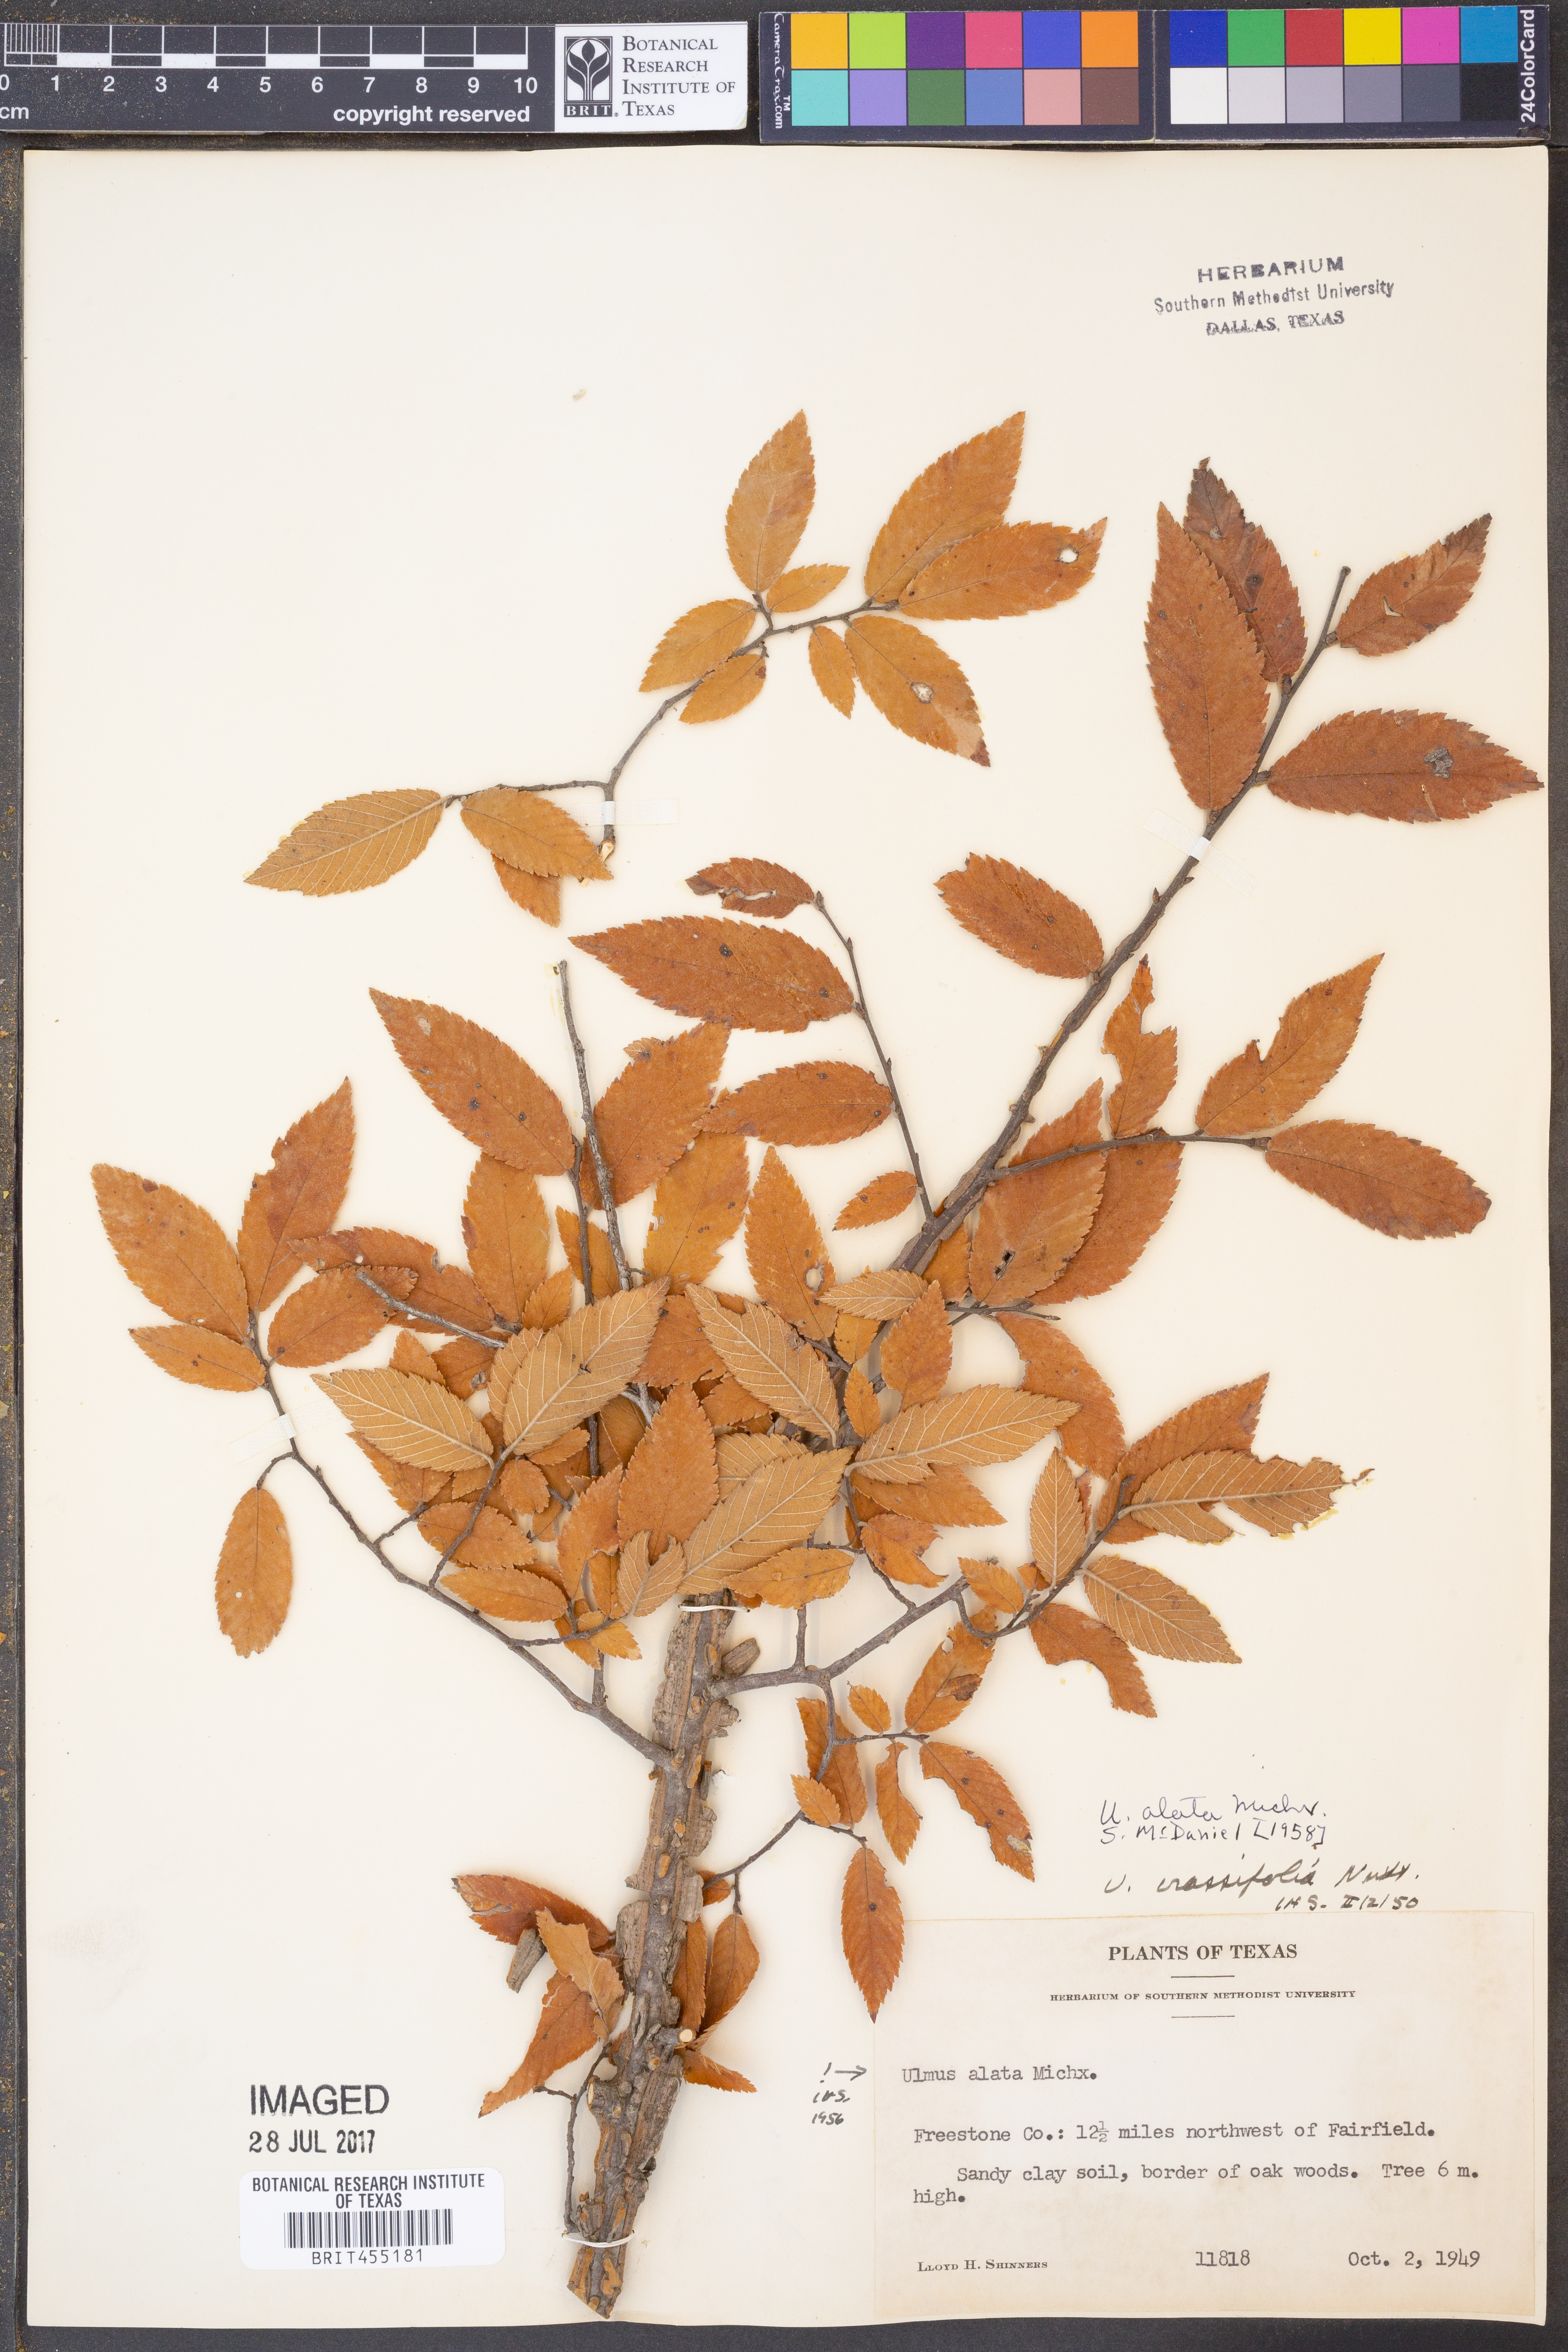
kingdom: Plantae
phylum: Tracheophyta
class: Magnoliopsida
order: Rosales
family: Ulmaceae
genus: Ulmus
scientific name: Ulmus alata
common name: Winged elm
